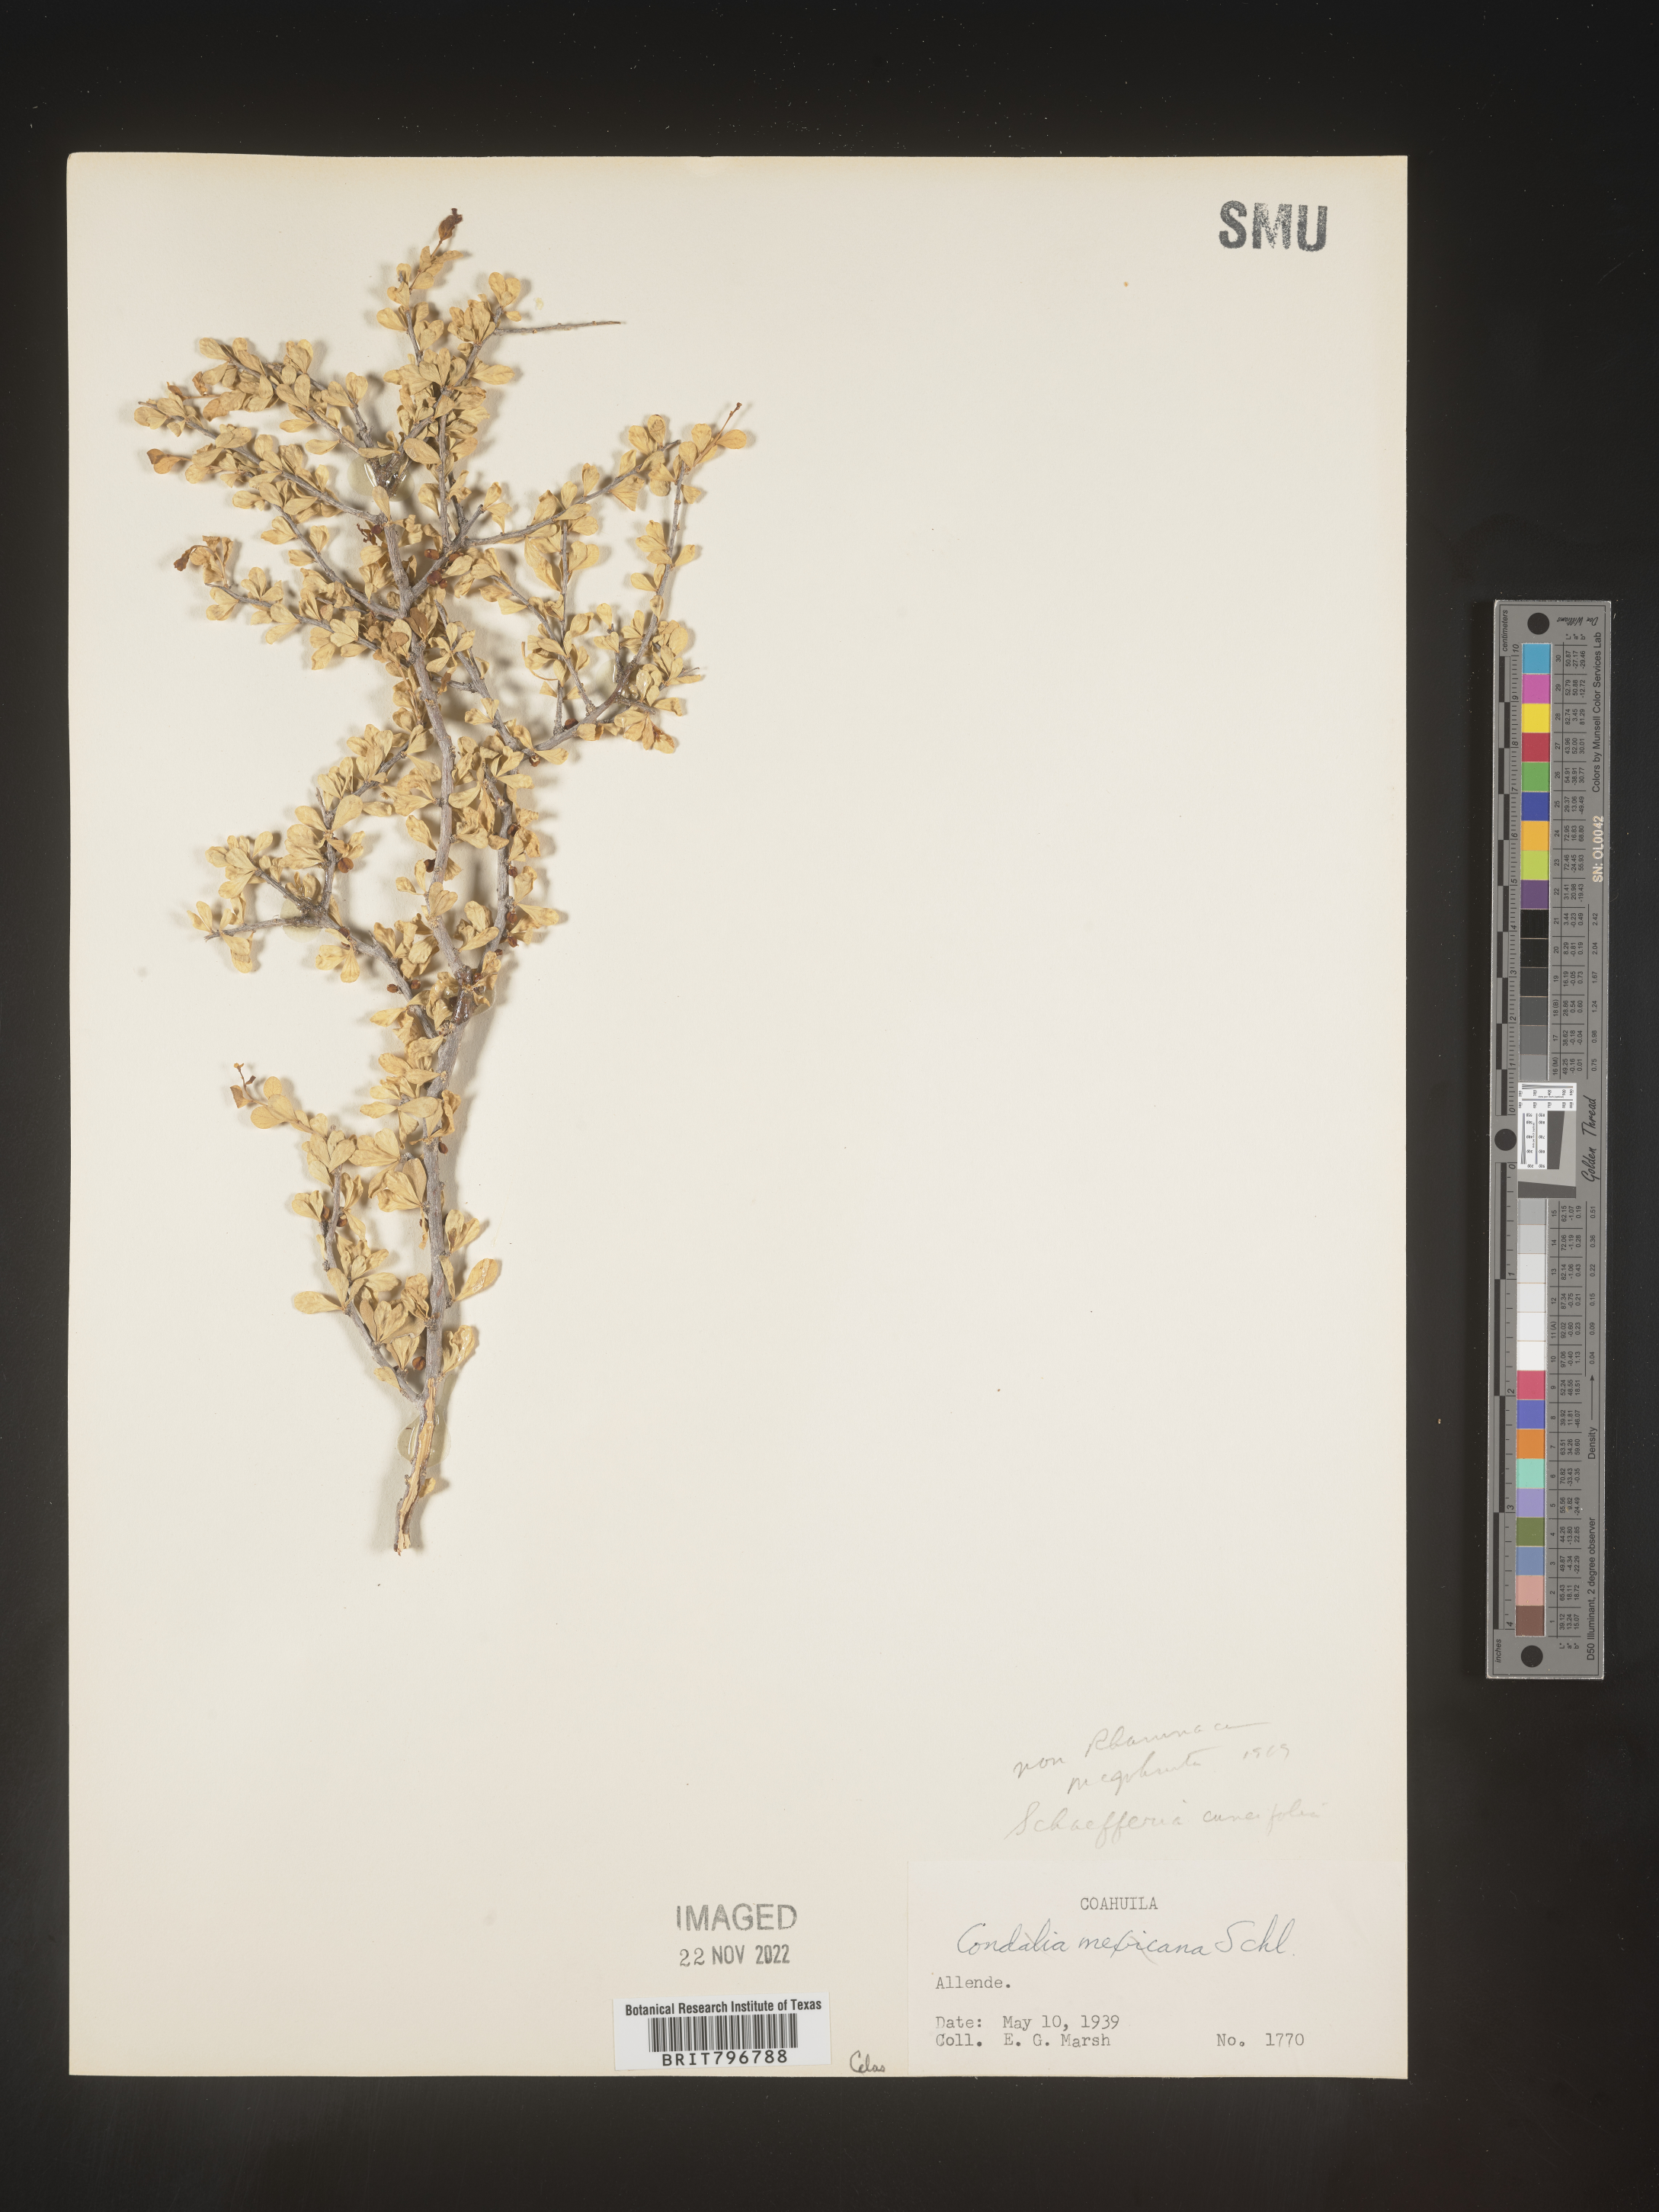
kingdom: Plantae
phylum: Tracheophyta
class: Magnoliopsida
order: Celastrales
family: Celastraceae
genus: Schaefferia
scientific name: Schaefferia
